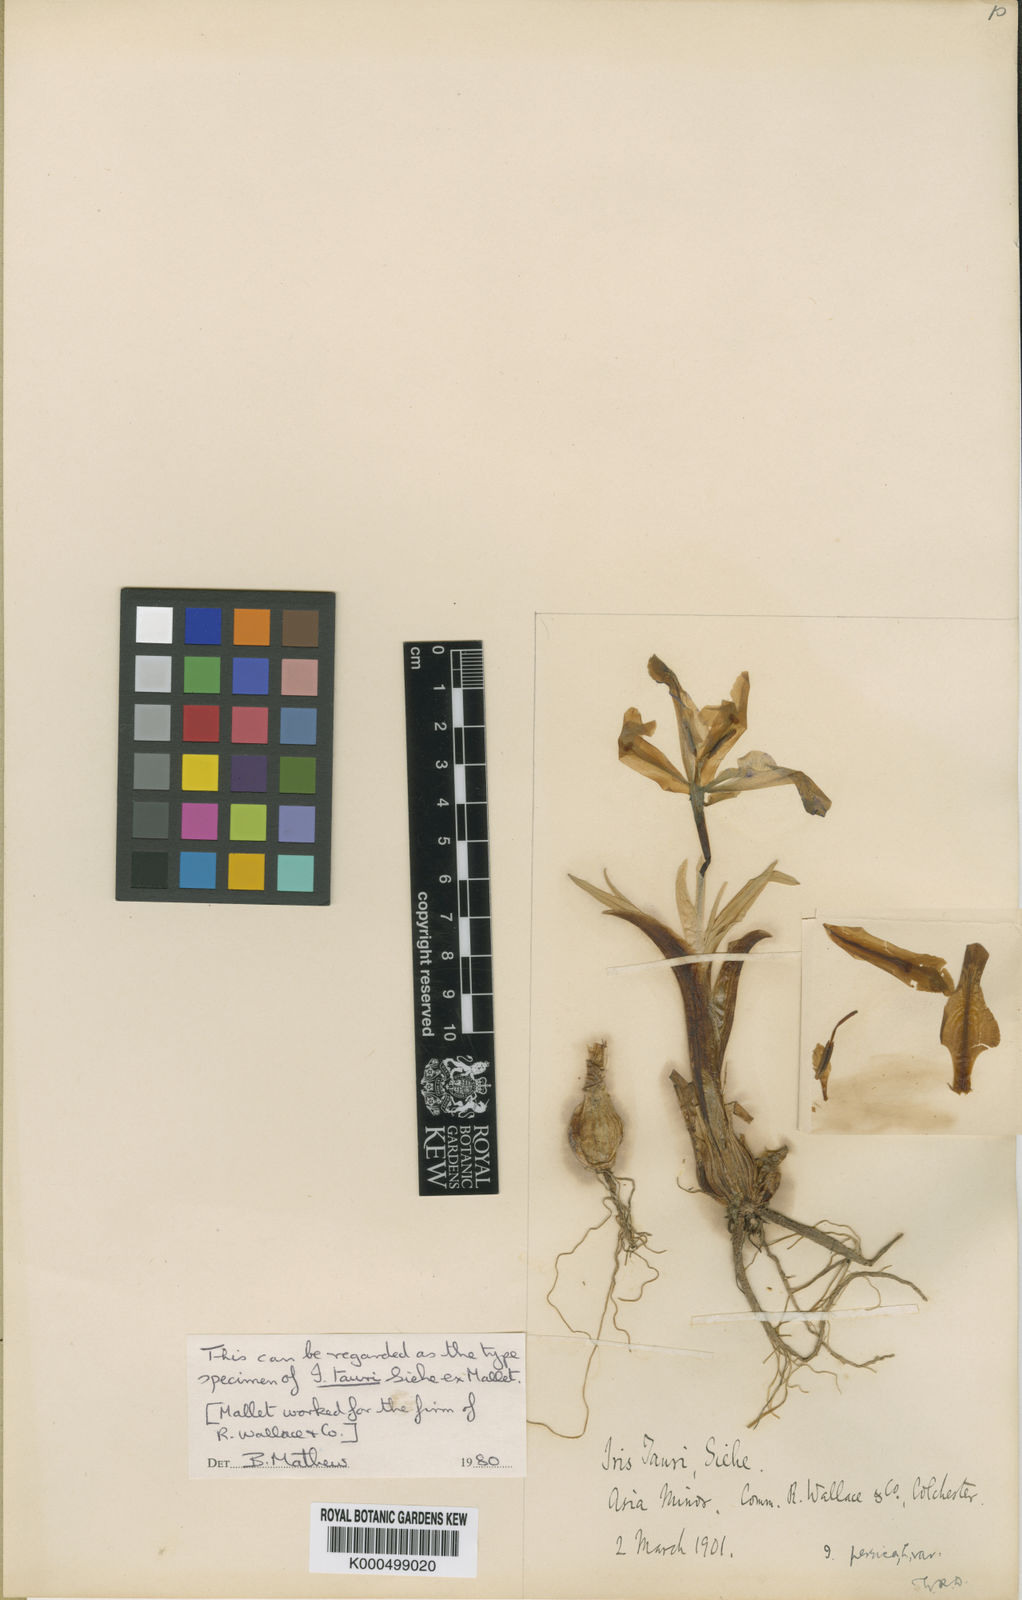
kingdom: Plantae
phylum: Tracheophyta
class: Liliopsida
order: Asparagales
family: Iridaceae
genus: Iris
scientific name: Iris stenophylla
